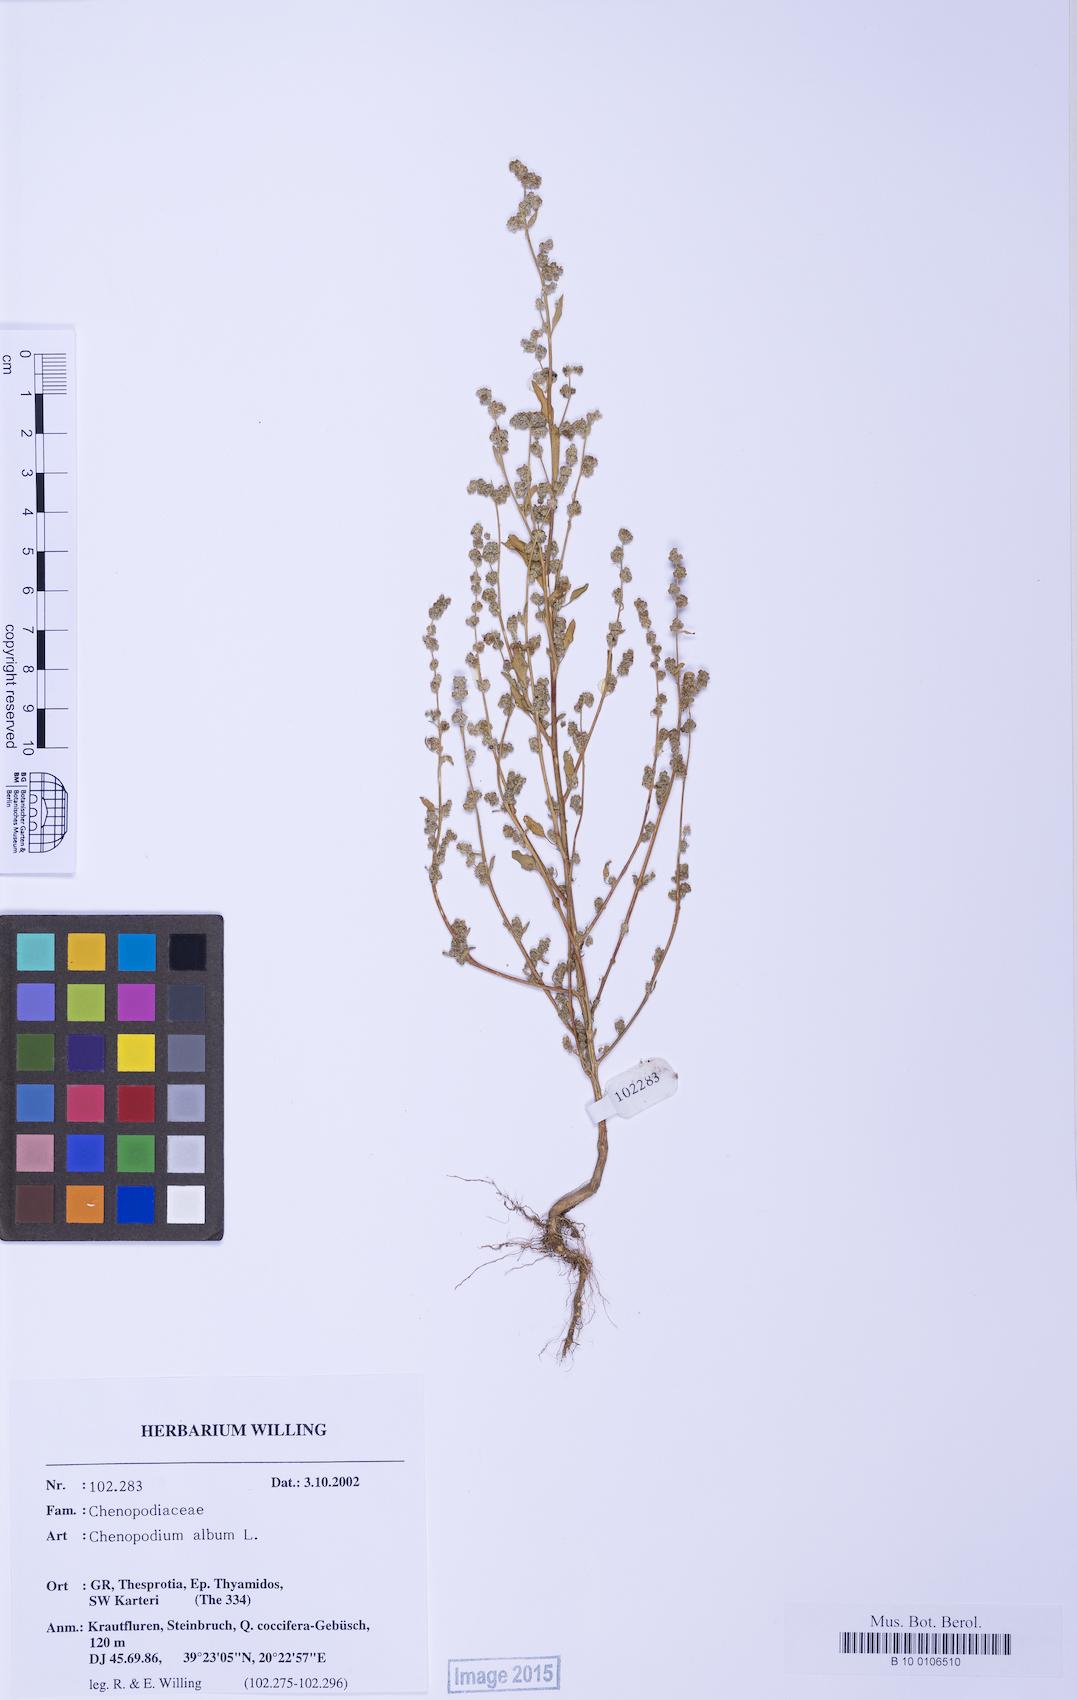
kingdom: Plantae
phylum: Tracheophyta
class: Magnoliopsida
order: Caryophyllales
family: Amaranthaceae
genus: Chenopodium
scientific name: Chenopodium striatiforme
